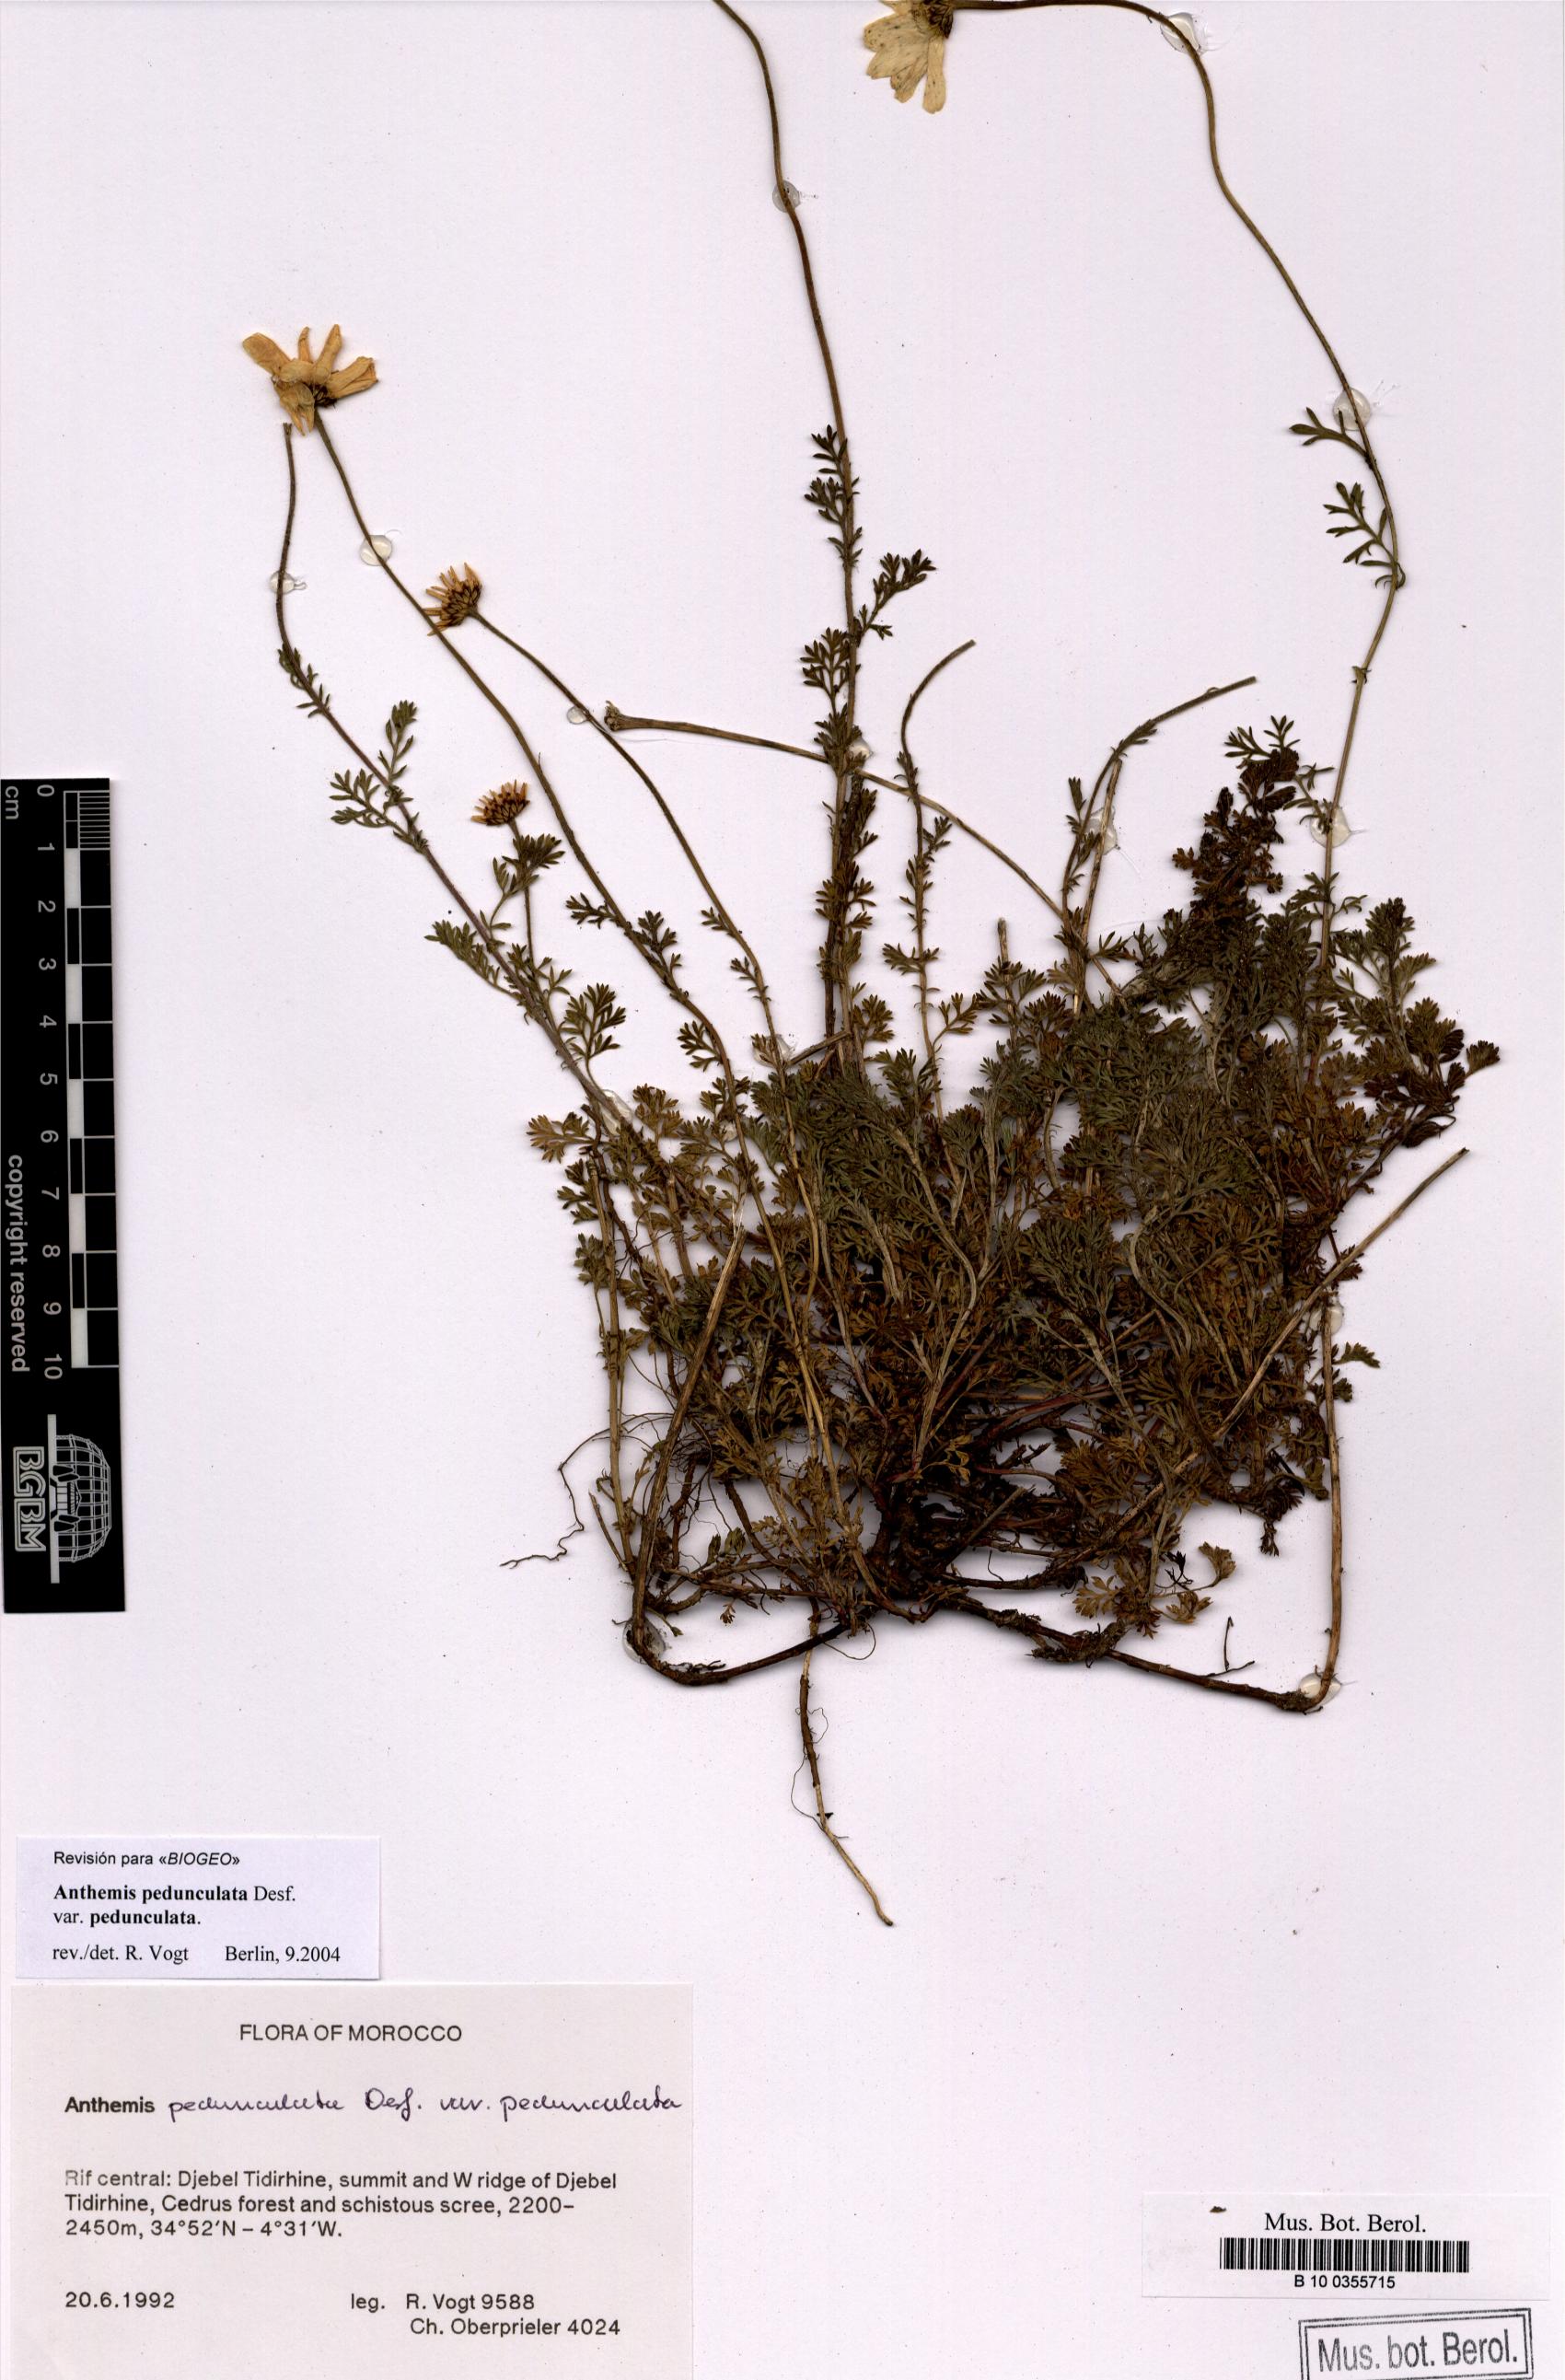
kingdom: Plantae
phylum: Tracheophyta
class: Magnoliopsida
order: Asterales
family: Asteraceae
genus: Anthemis
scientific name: Anthemis pedunculata
